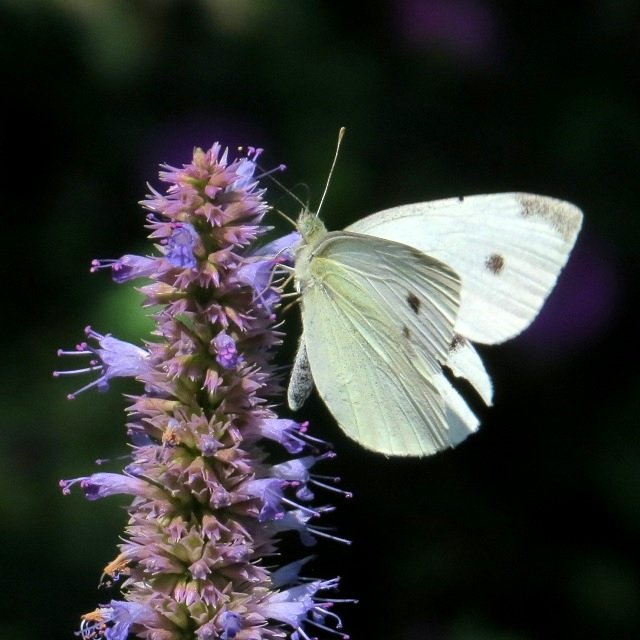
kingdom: Animalia
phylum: Arthropoda
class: Insecta
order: Lepidoptera
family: Pieridae
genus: Pieris
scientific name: Pieris rapae
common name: Cabbage White
